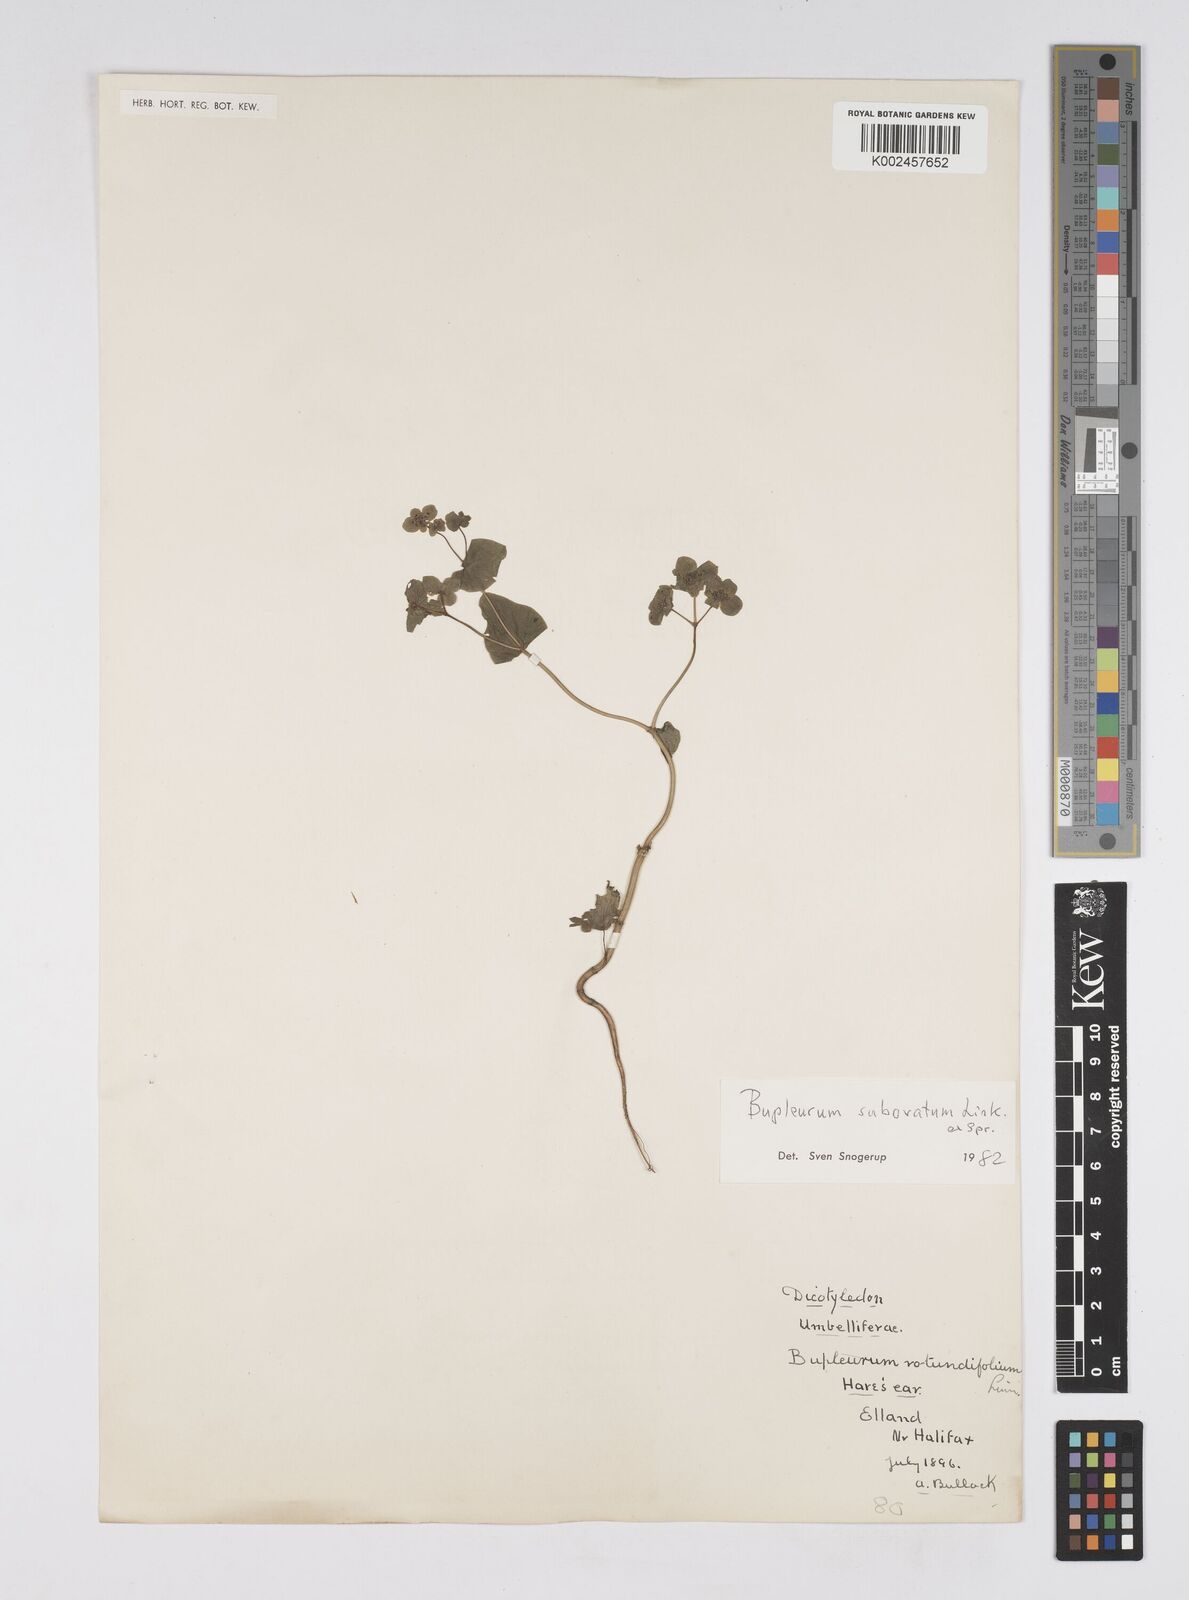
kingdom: Plantae
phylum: Tracheophyta
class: Magnoliopsida
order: Apiales
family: Apiaceae
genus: Bupleurum
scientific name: Bupleurum subovatum
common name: False thorow-wax
